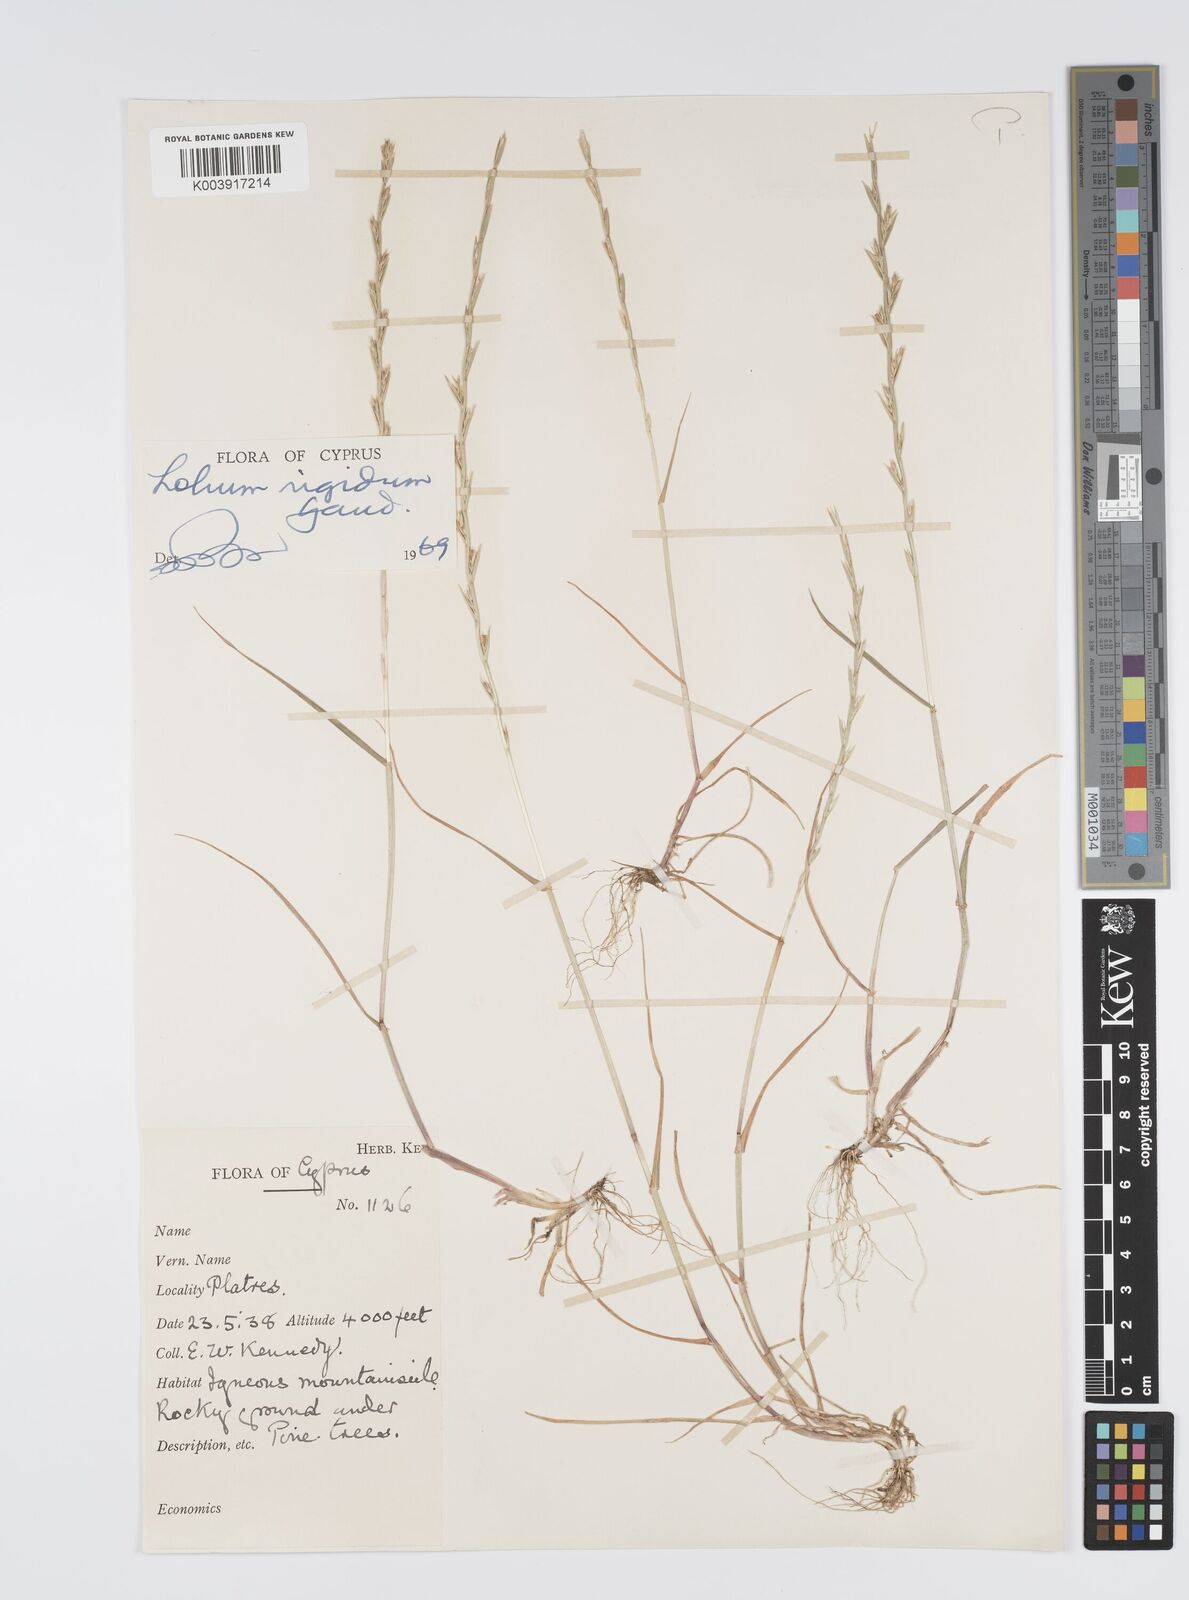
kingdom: Plantae
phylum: Tracheophyta
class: Liliopsida
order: Poales
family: Poaceae
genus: Lolium
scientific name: Lolium rigidum
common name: Wimmera ryegrass
